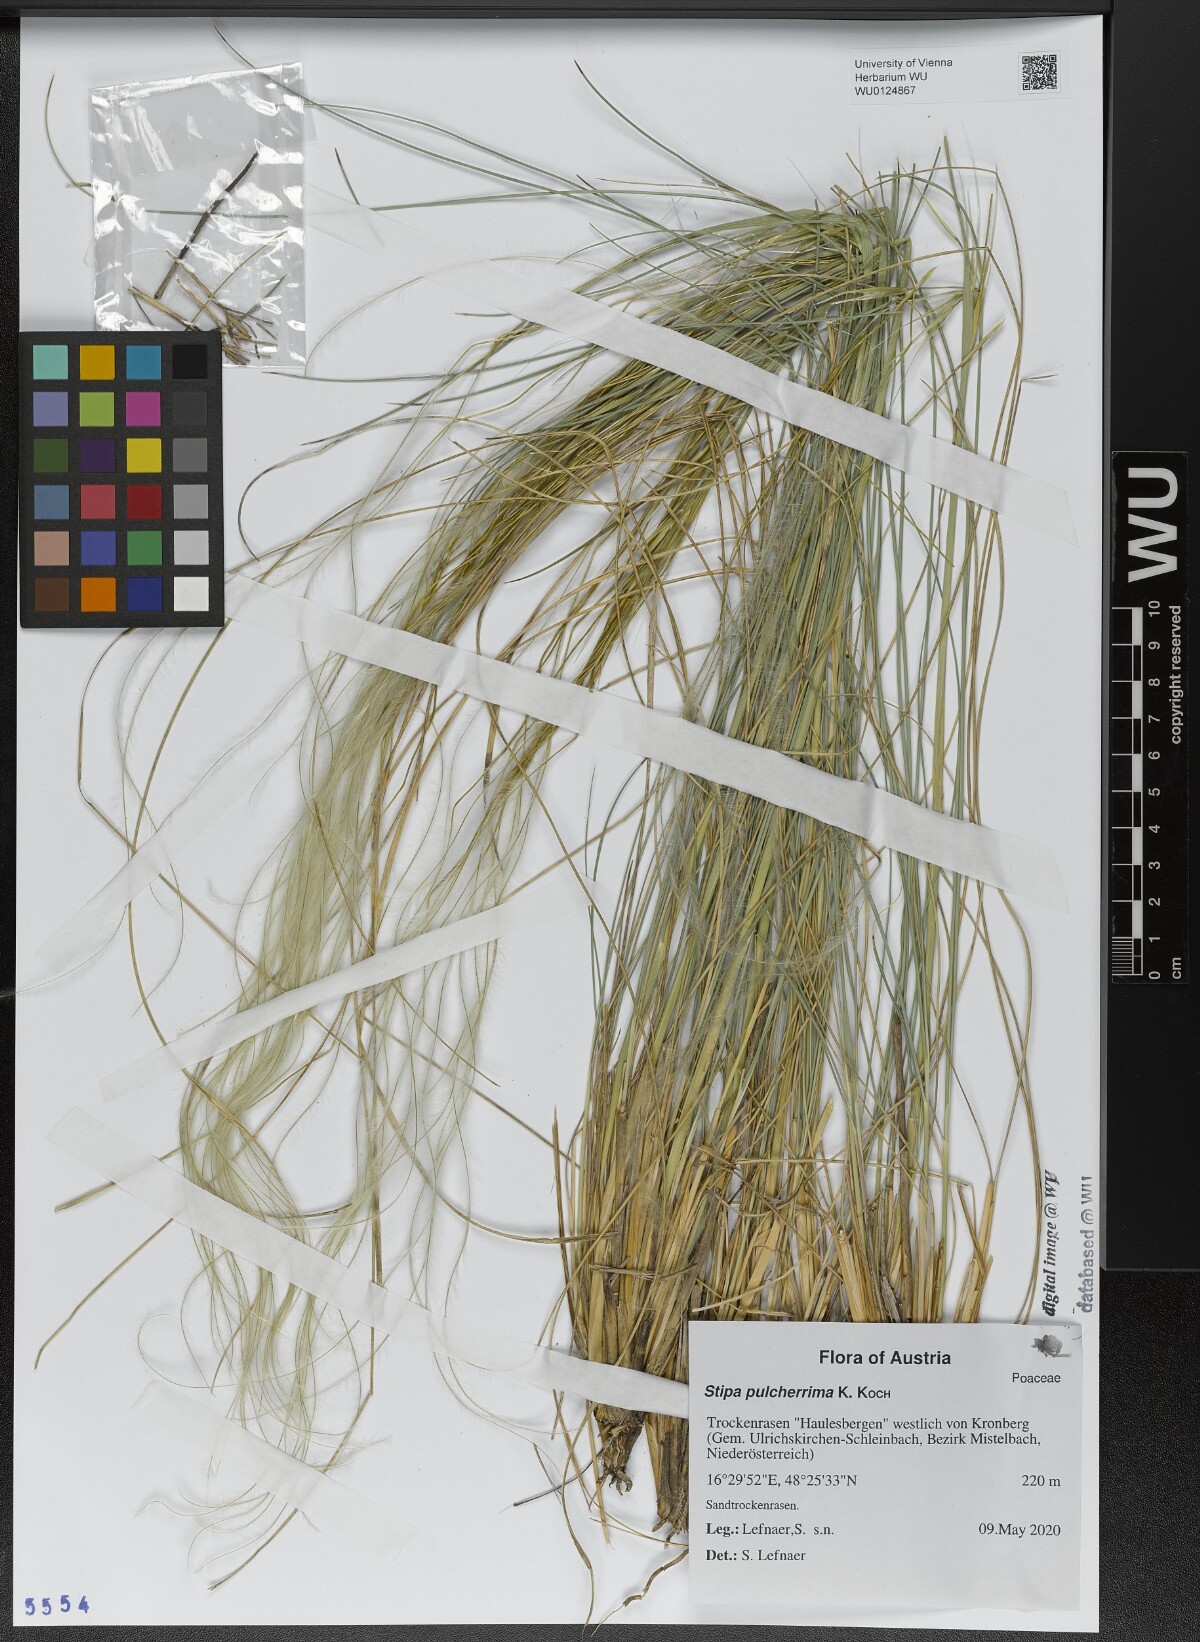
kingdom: Plantae
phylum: Tracheophyta
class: Liliopsida
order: Poales
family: Poaceae
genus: Stipa
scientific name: Stipa pulcherrima
